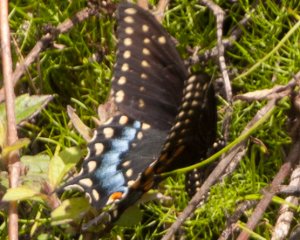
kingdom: Animalia
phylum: Arthropoda
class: Insecta
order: Lepidoptera
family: Papilionidae
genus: Papilio
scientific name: Papilio polyxenes
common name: Black Swallowtail
